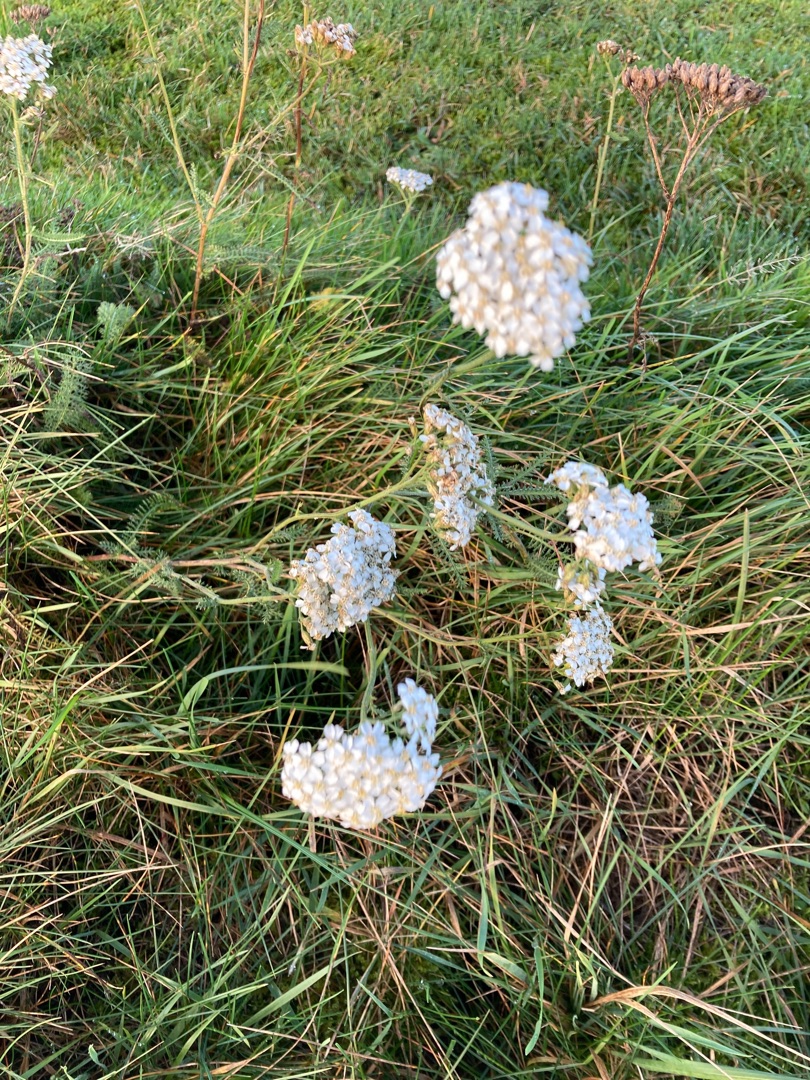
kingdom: Plantae
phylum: Tracheophyta
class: Magnoliopsida
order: Asterales
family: Asteraceae
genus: Achillea
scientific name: Achillea millefolium
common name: Almindelig røllike
